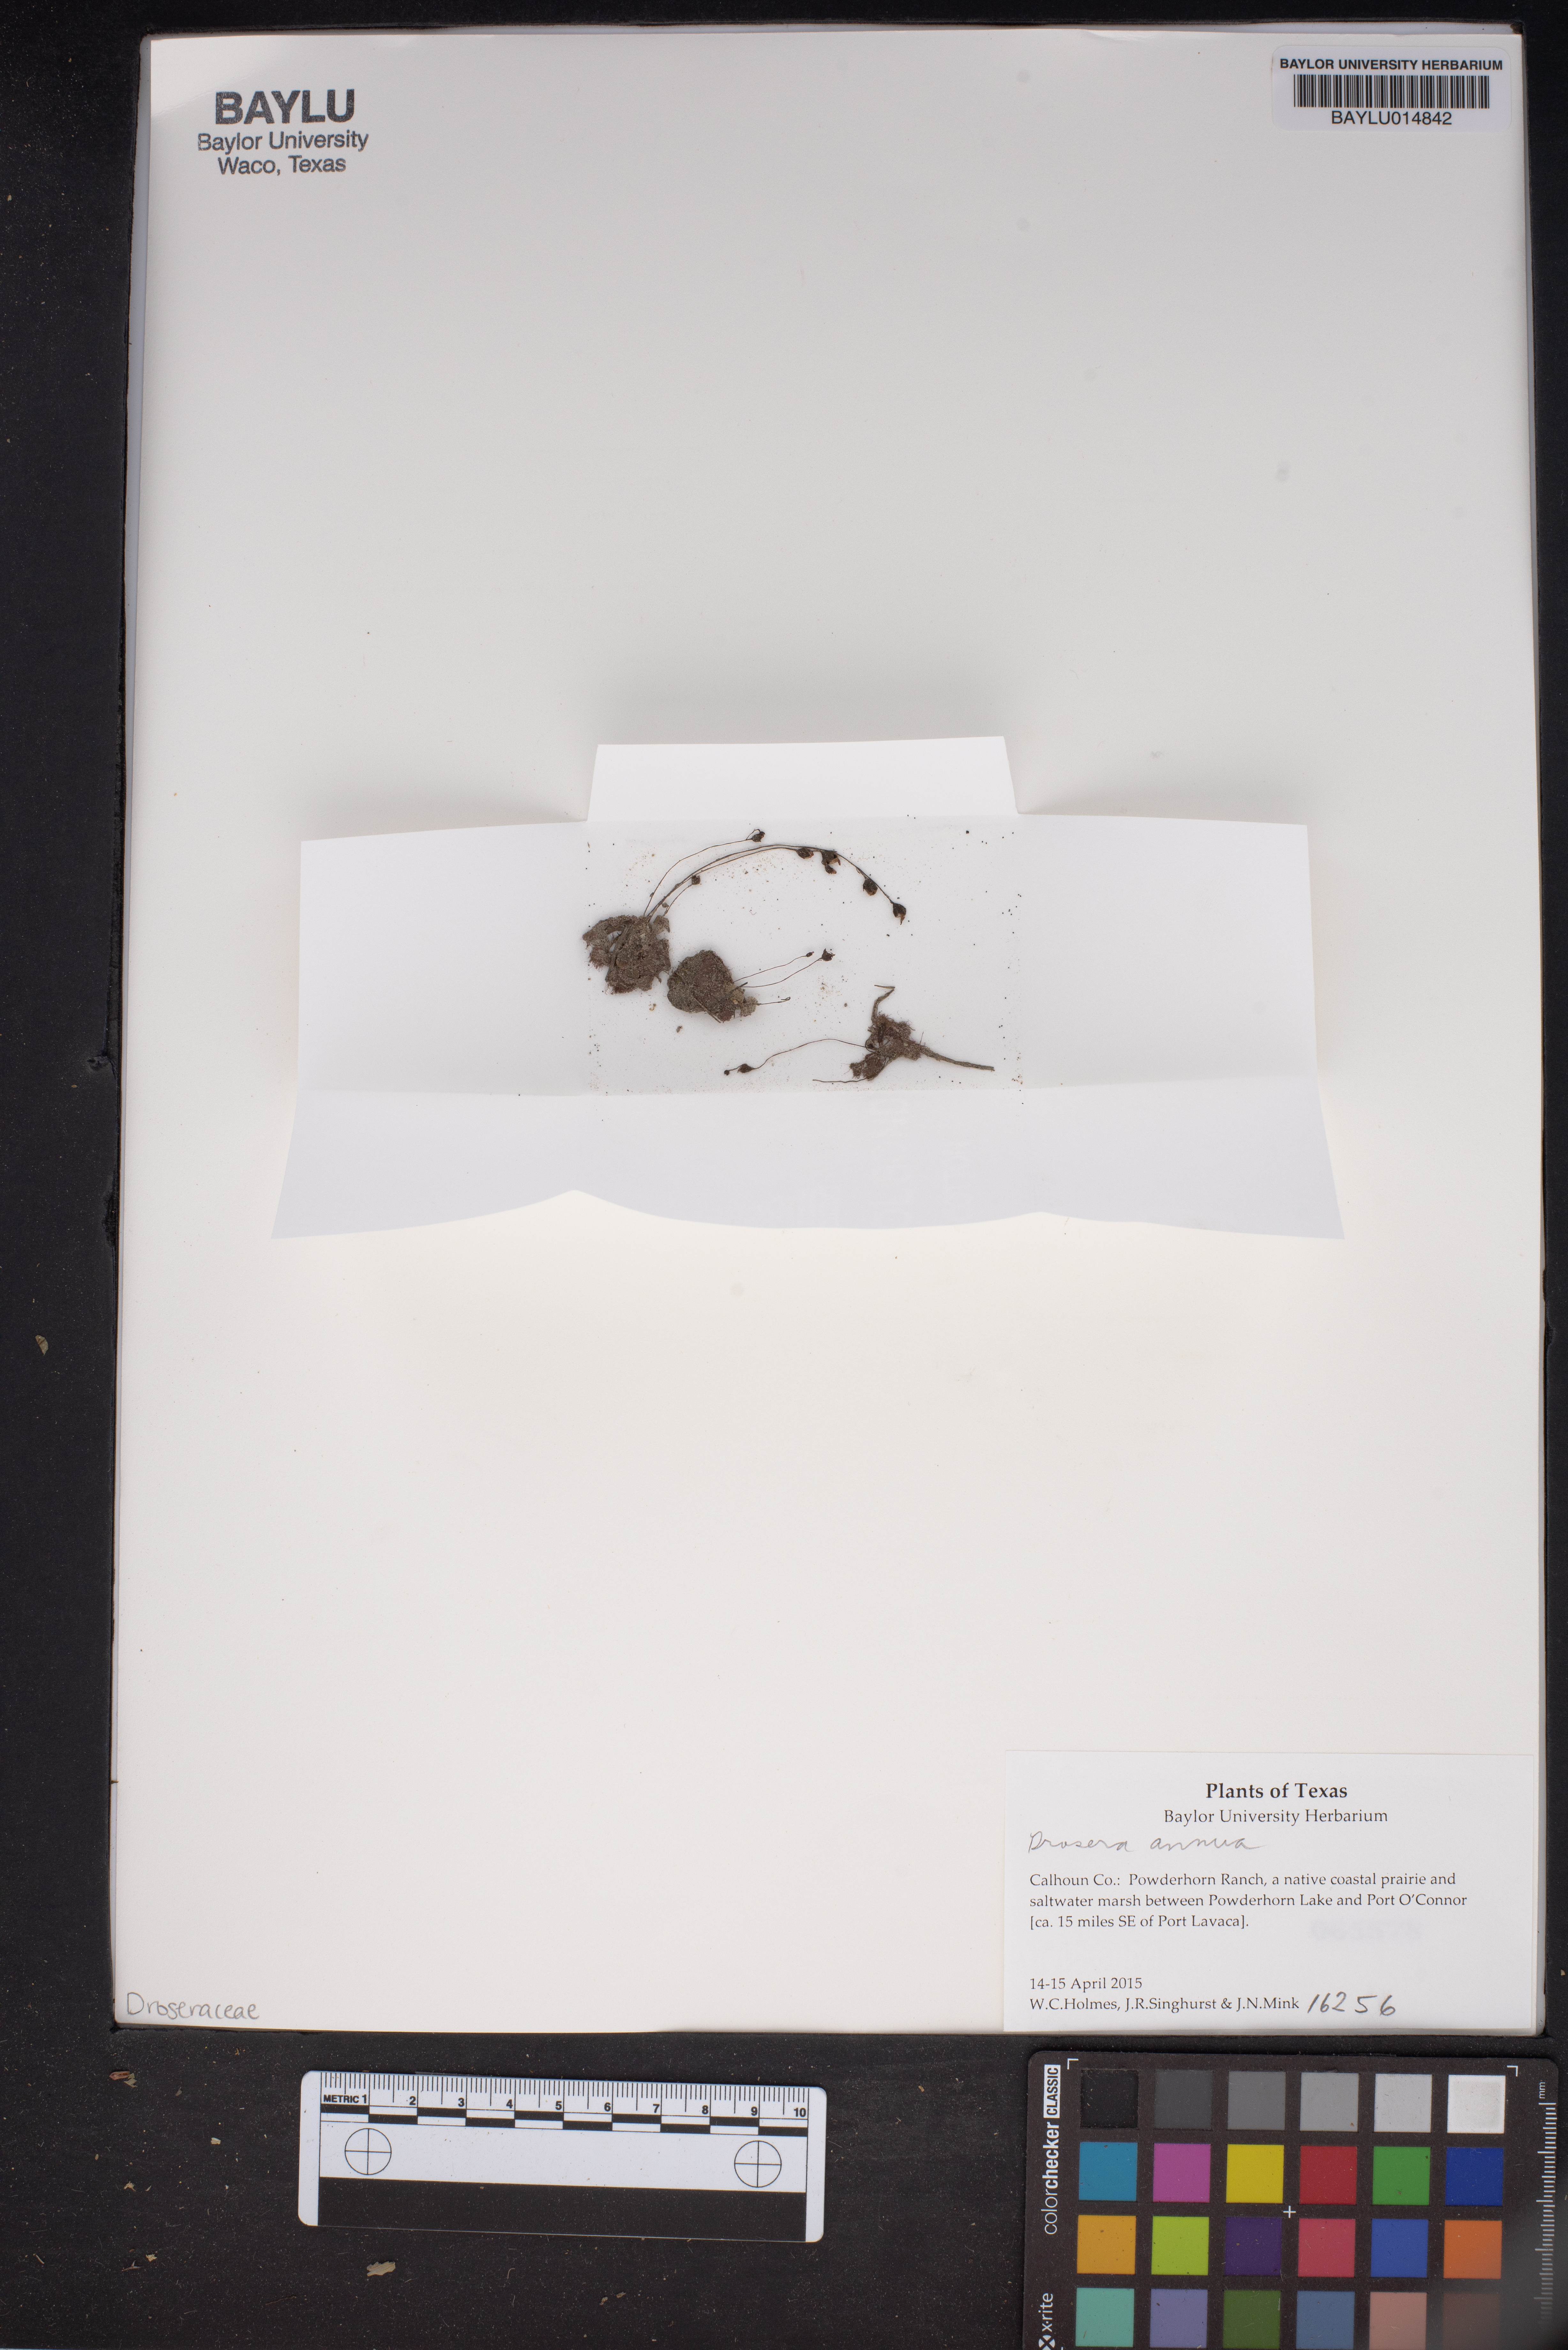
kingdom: Plantae
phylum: Tracheophyta
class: Magnoliopsida
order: Caryophyllales
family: Droseraceae
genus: Drosera
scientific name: Drosera brevifolia
